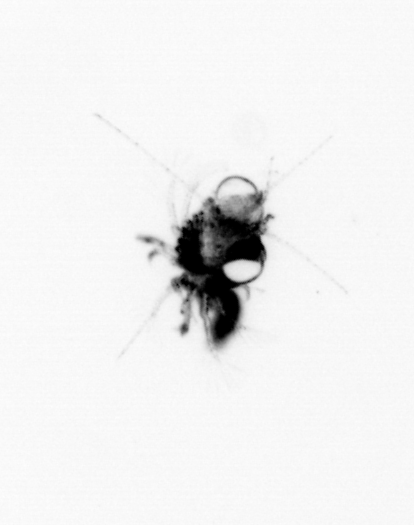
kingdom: Animalia
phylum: Arthropoda
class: Malacostraca
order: Decapoda
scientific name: Decapoda
